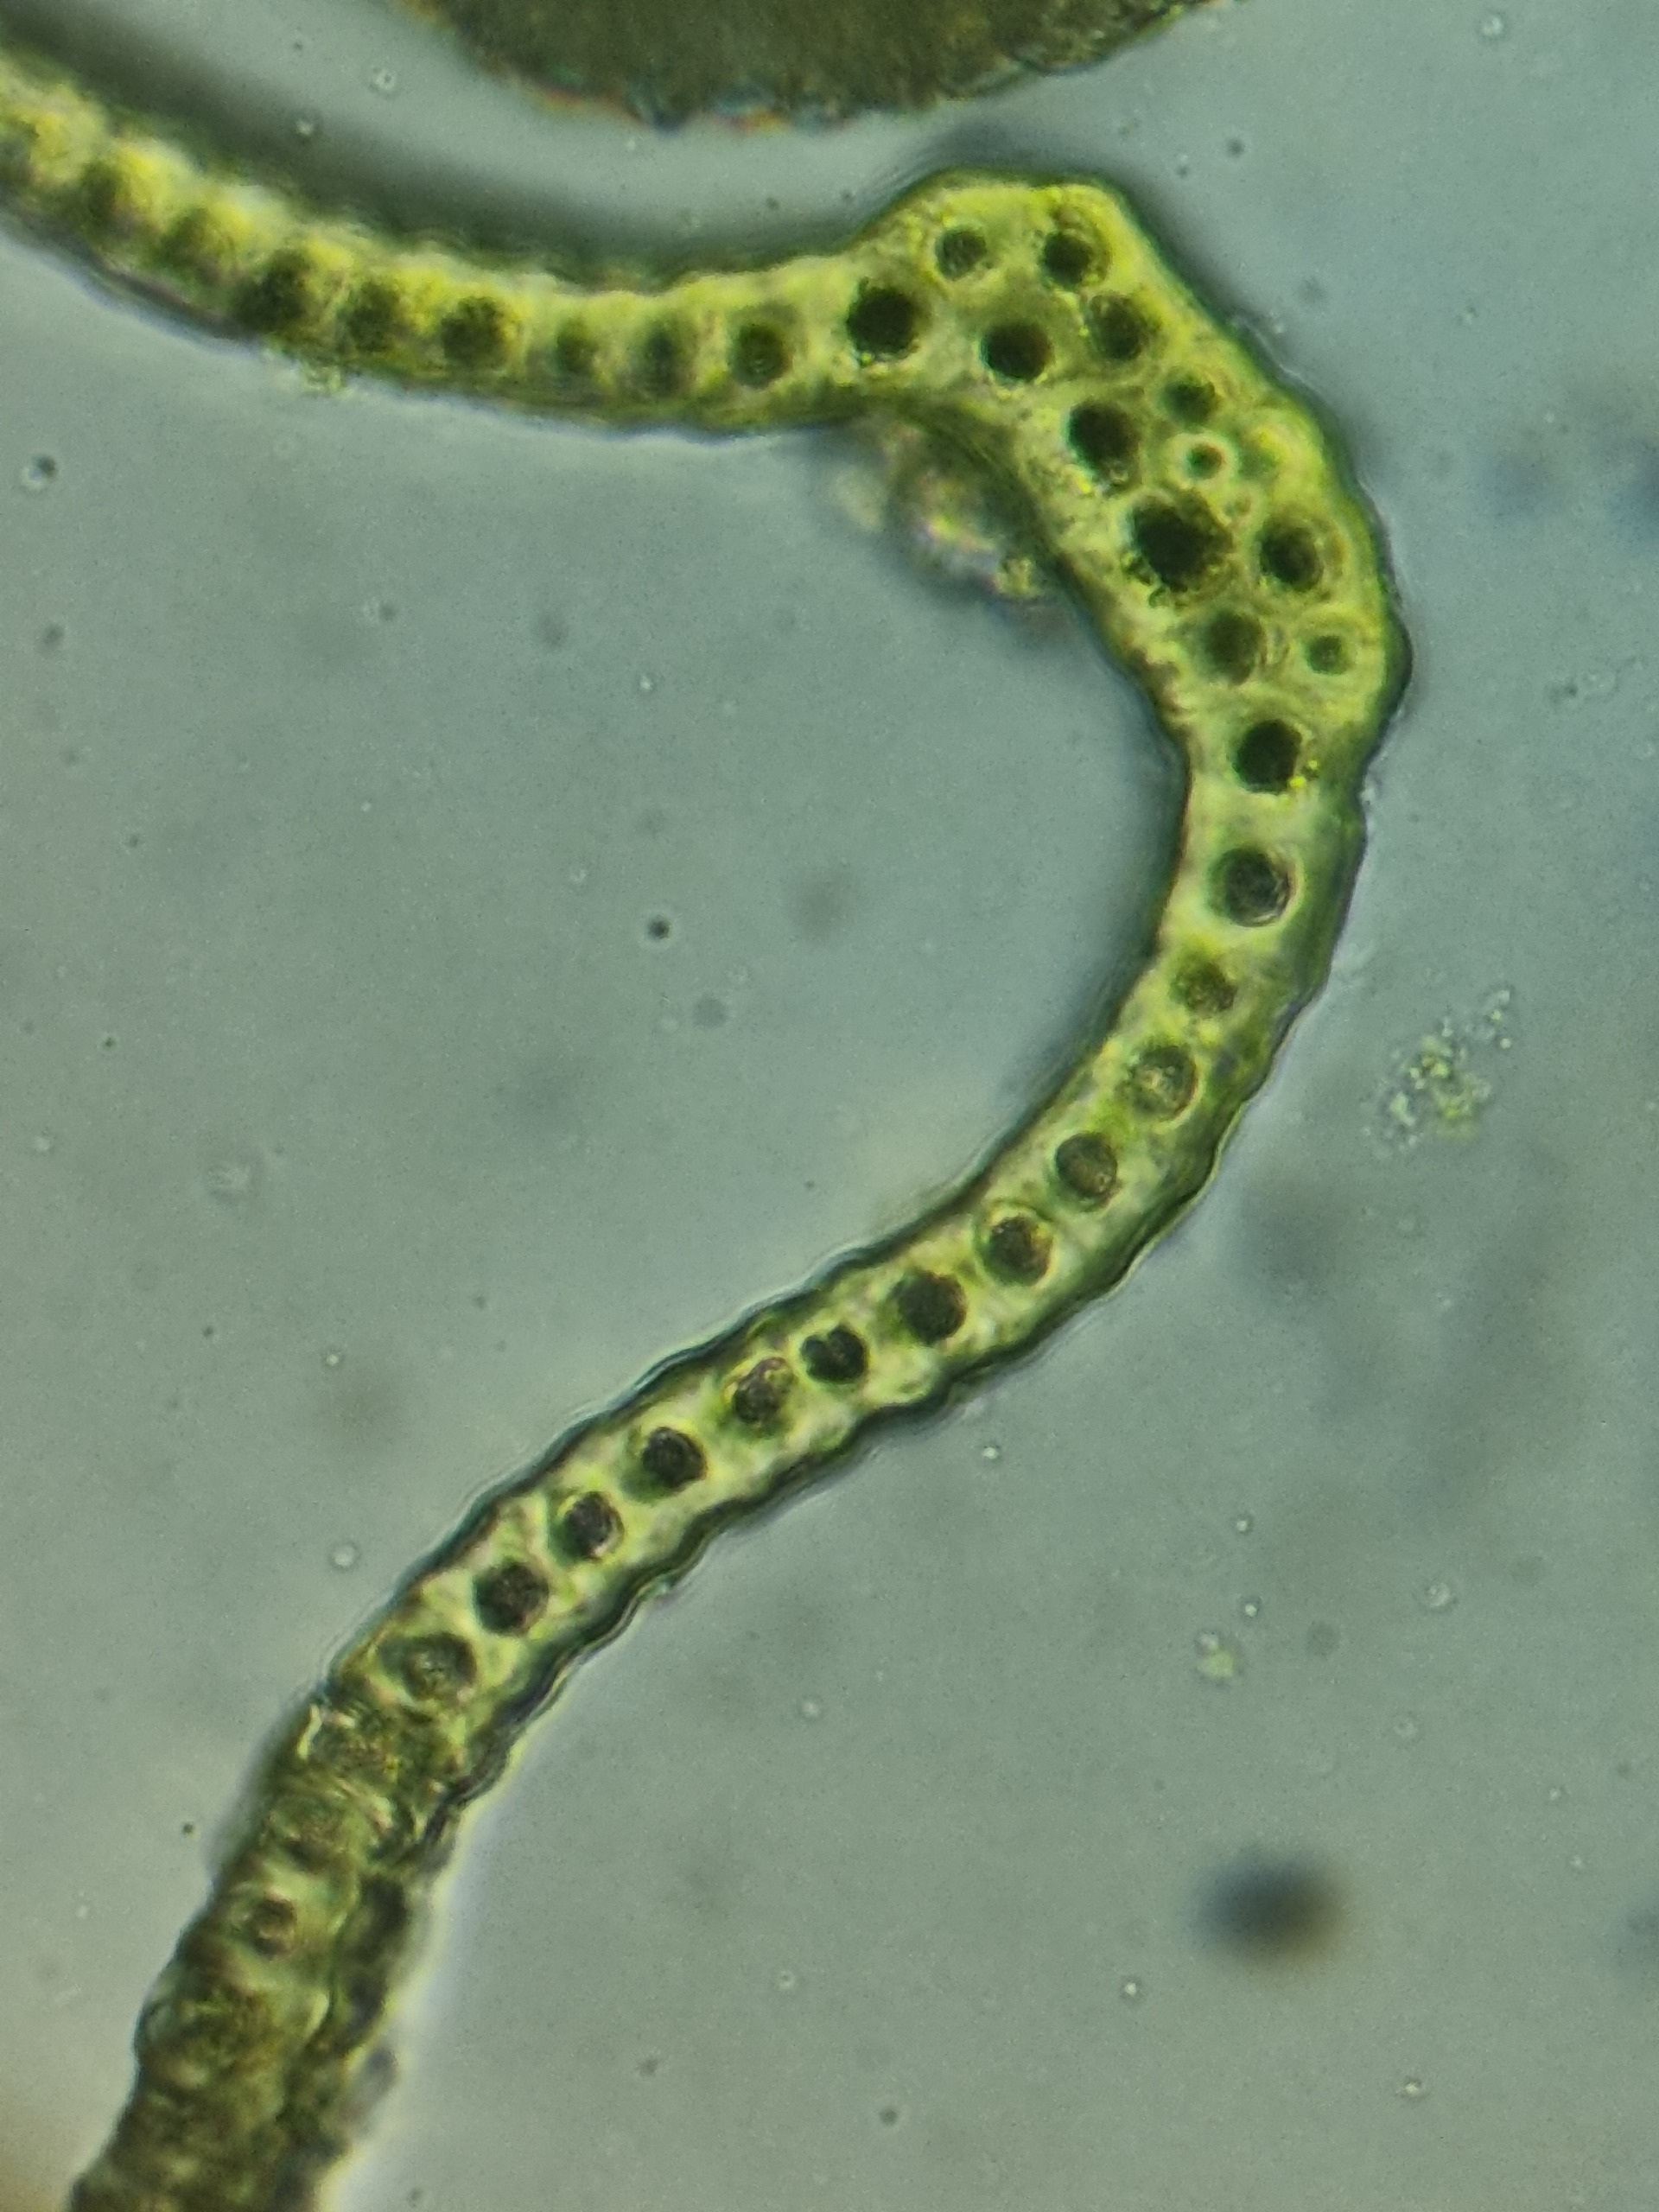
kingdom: Plantae
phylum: Bryophyta
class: Bryopsida
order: Grimmiales
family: Grimmiaceae
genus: Bucklandiella
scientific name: Bucklandiella heterosticha
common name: Sten-børstemos
